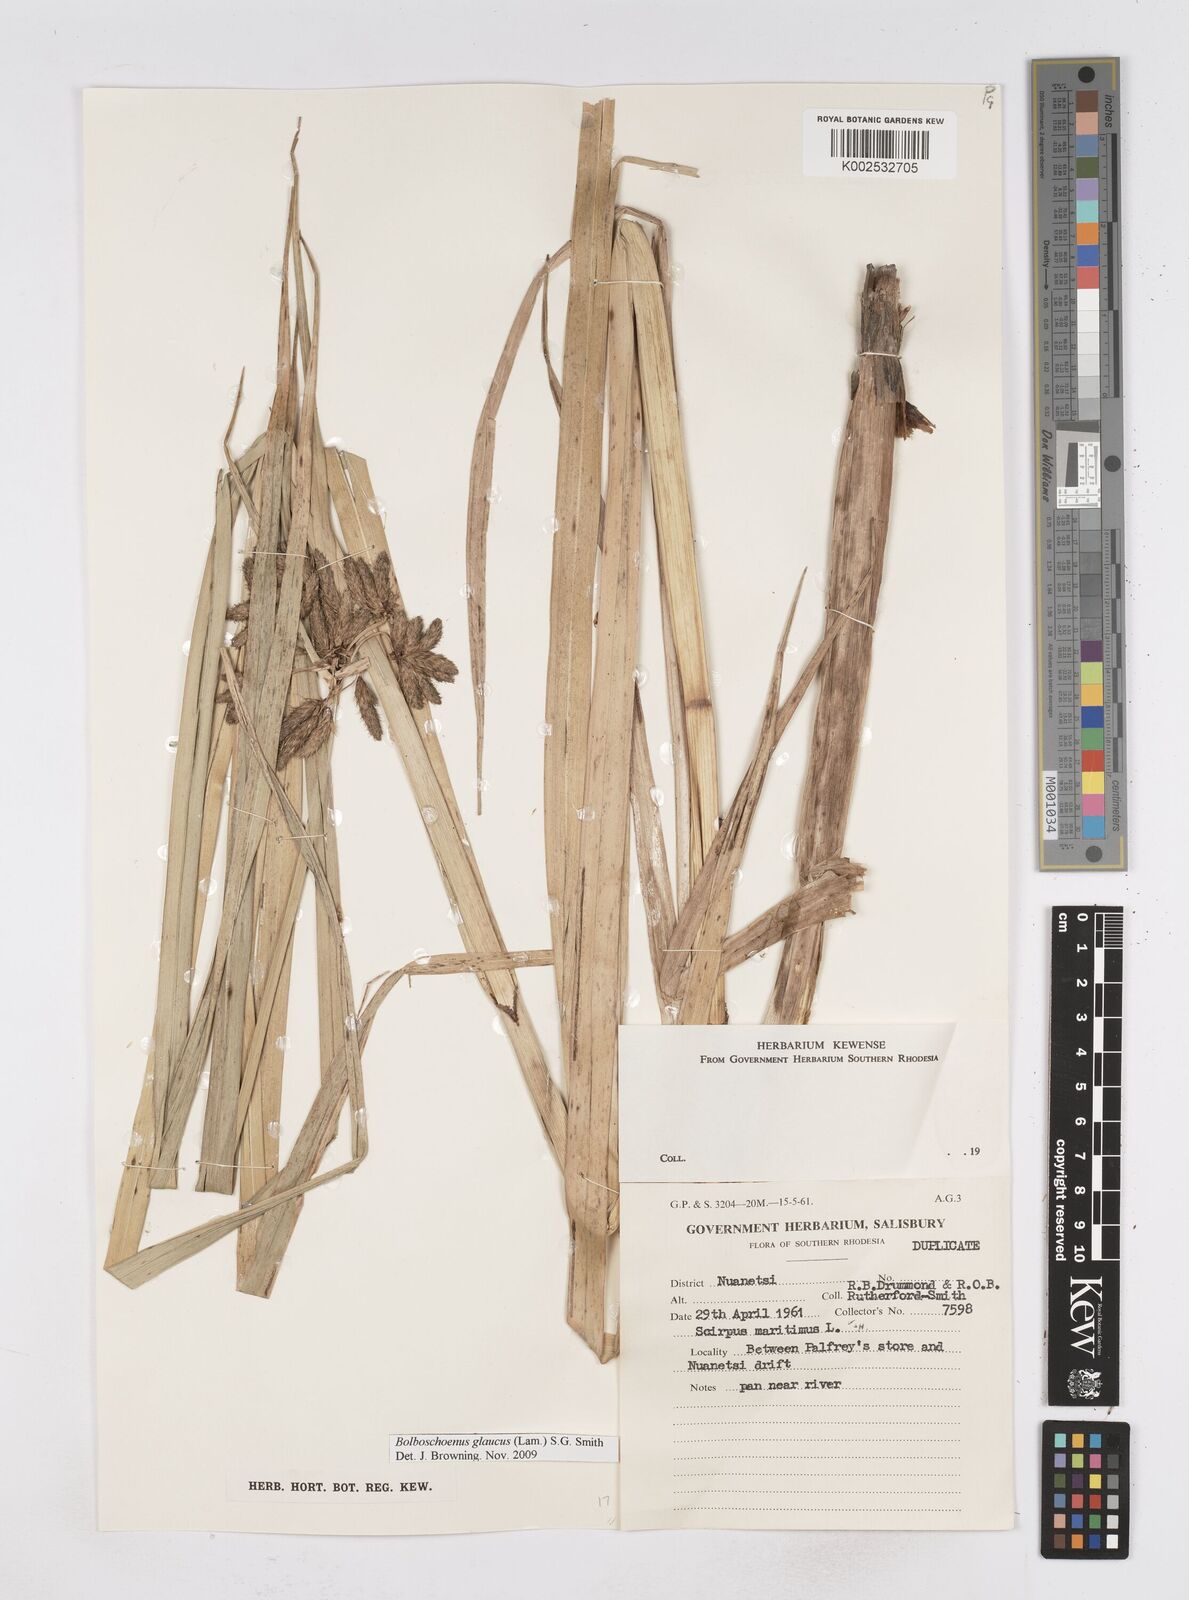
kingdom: Plantae
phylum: Tracheophyta
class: Liliopsida
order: Poales
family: Cyperaceae
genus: Bolboschoenus
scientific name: Bolboschoenus glaucus
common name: Tuberous bulrush
